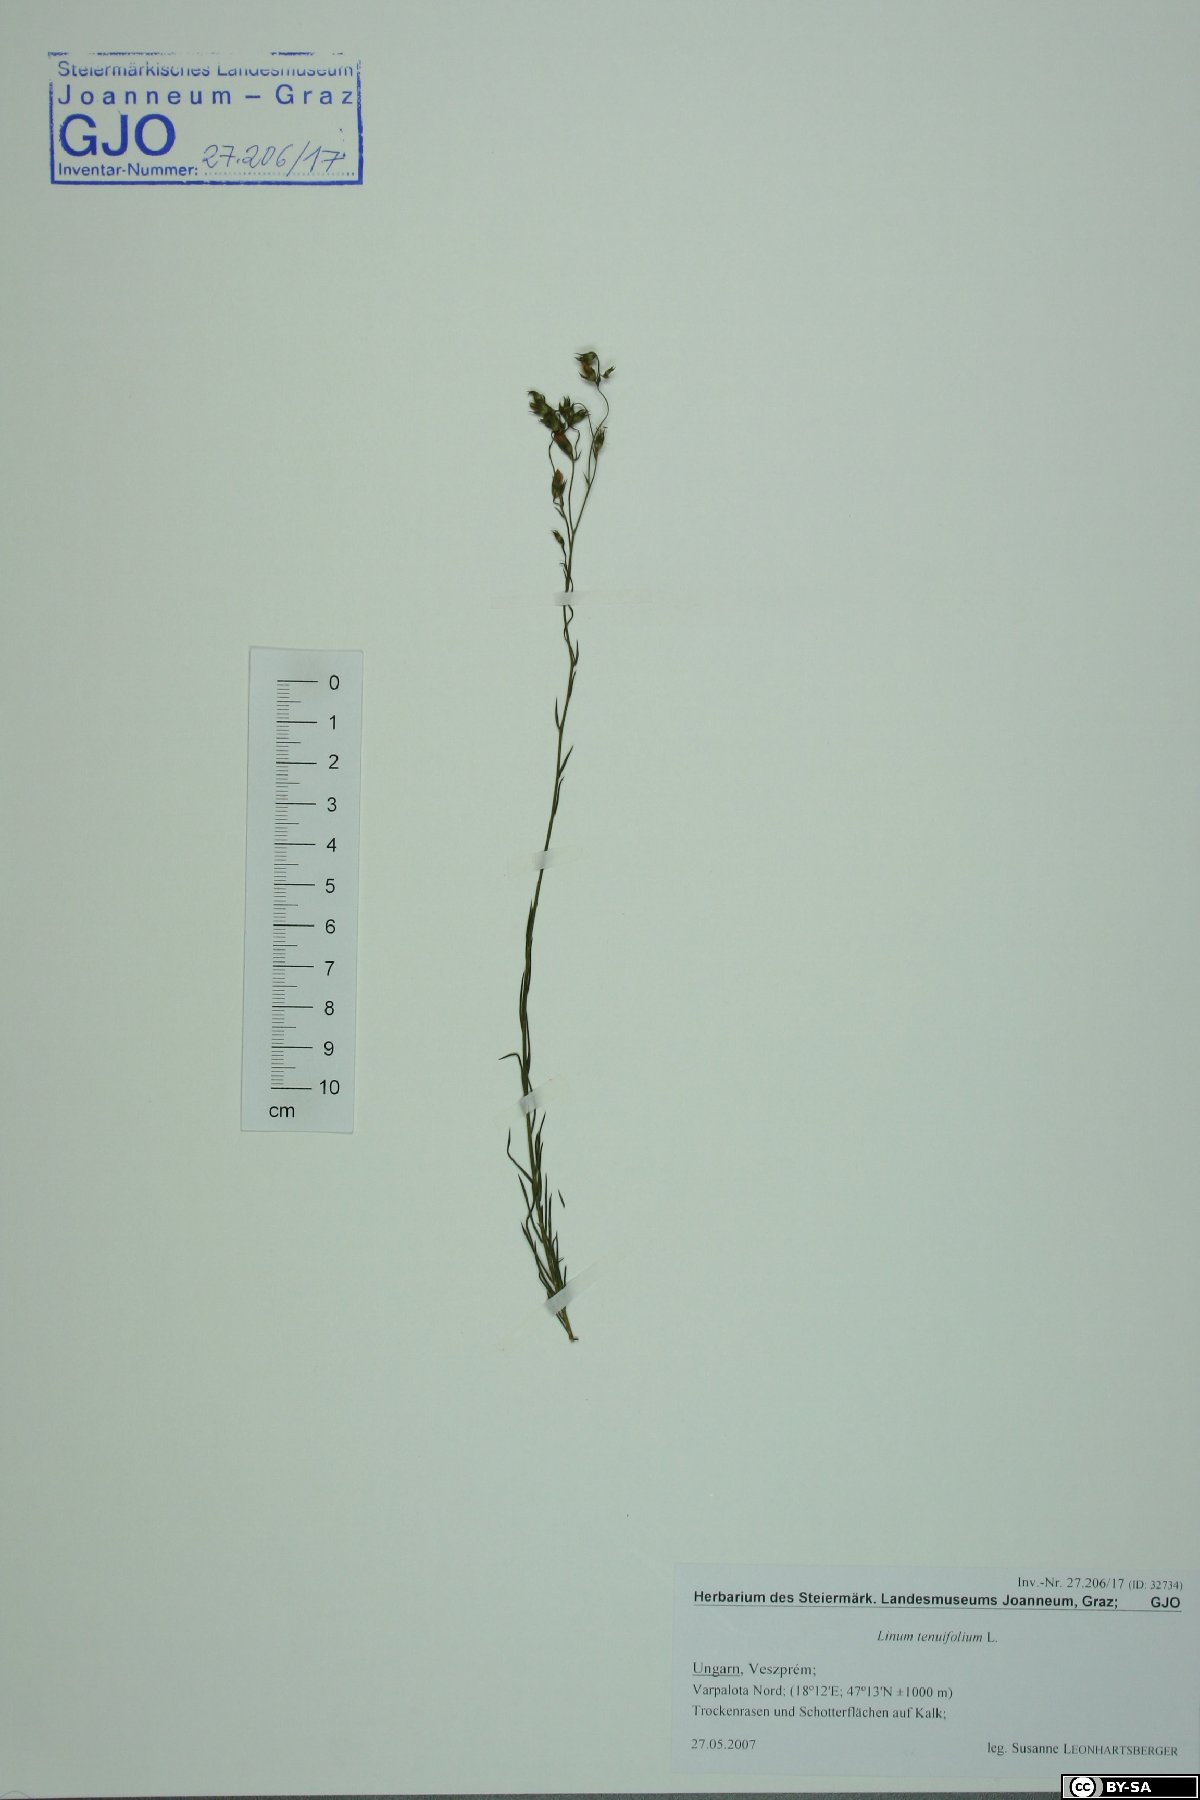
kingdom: Plantae
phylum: Tracheophyta
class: Magnoliopsida
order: Malpighiales
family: Linaceae
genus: Linum
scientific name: Linum tenuifolium
